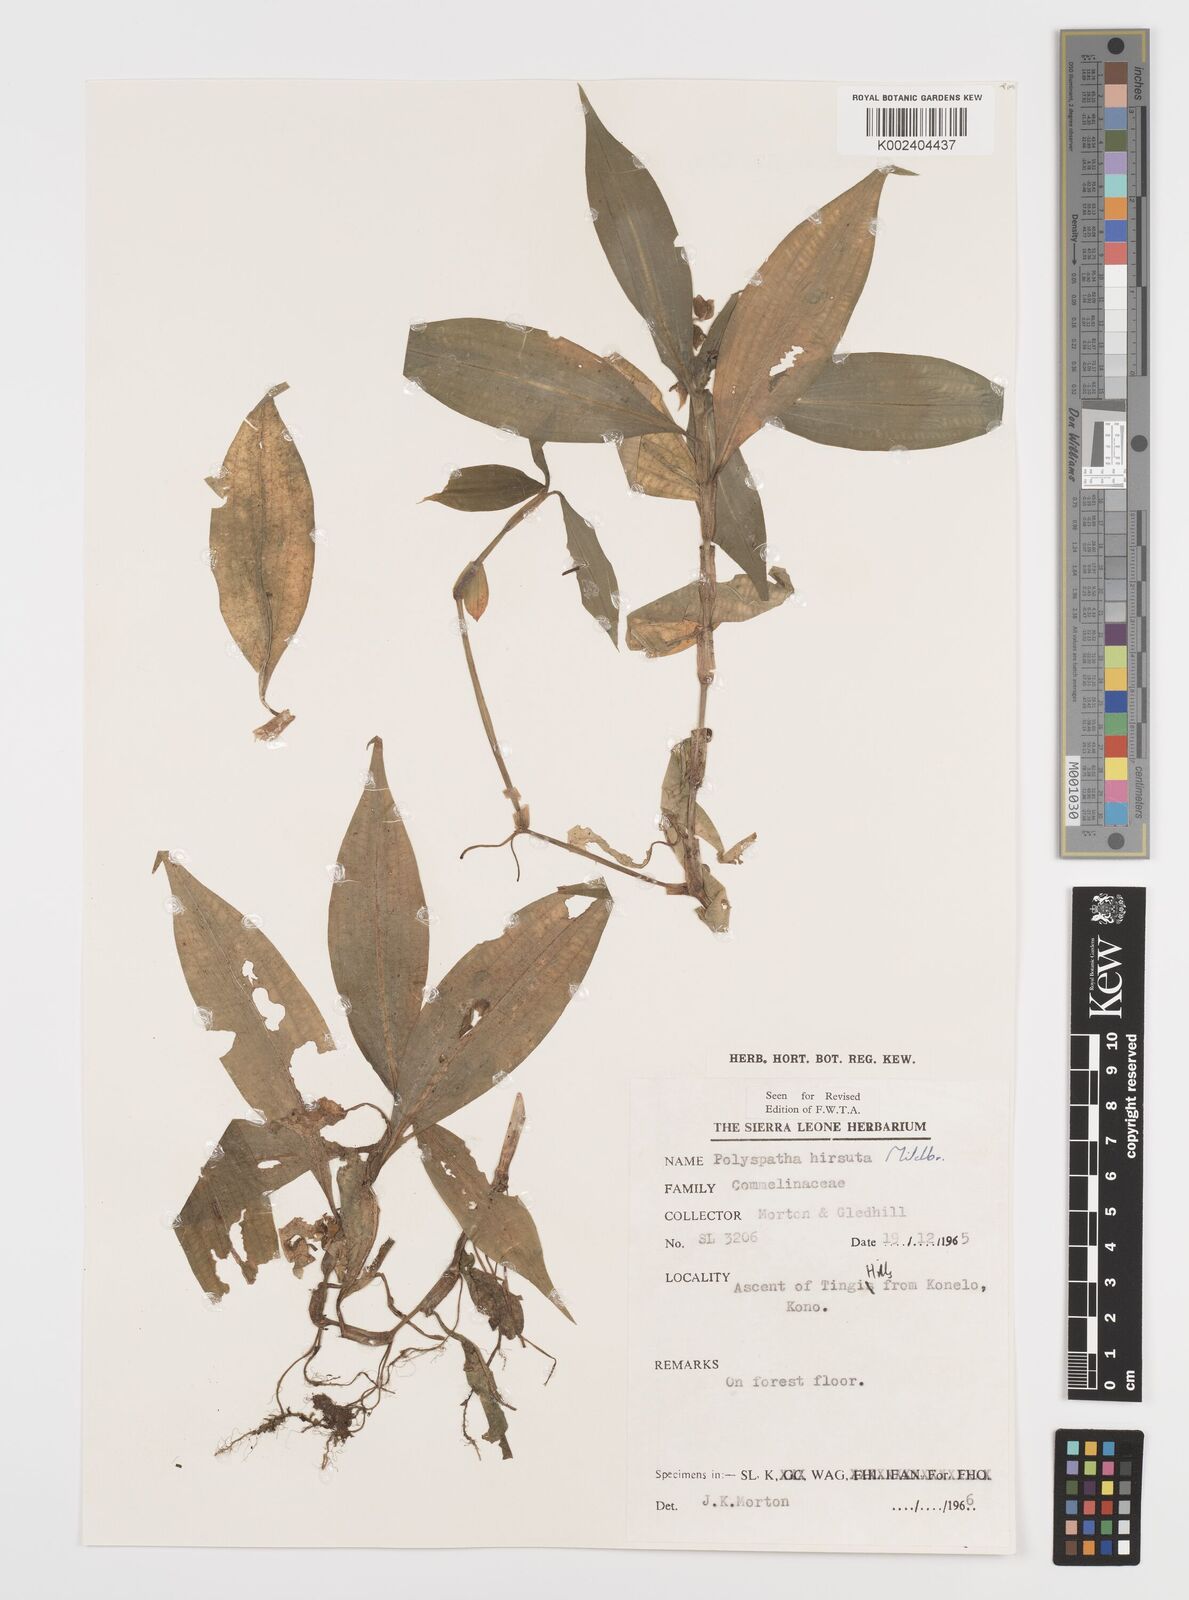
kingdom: Plantae
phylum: Tracheophyta
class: Liliopsida
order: Commelinales
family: Commelinaceae
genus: Polyspatha
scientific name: Polyspatha hirsuta
